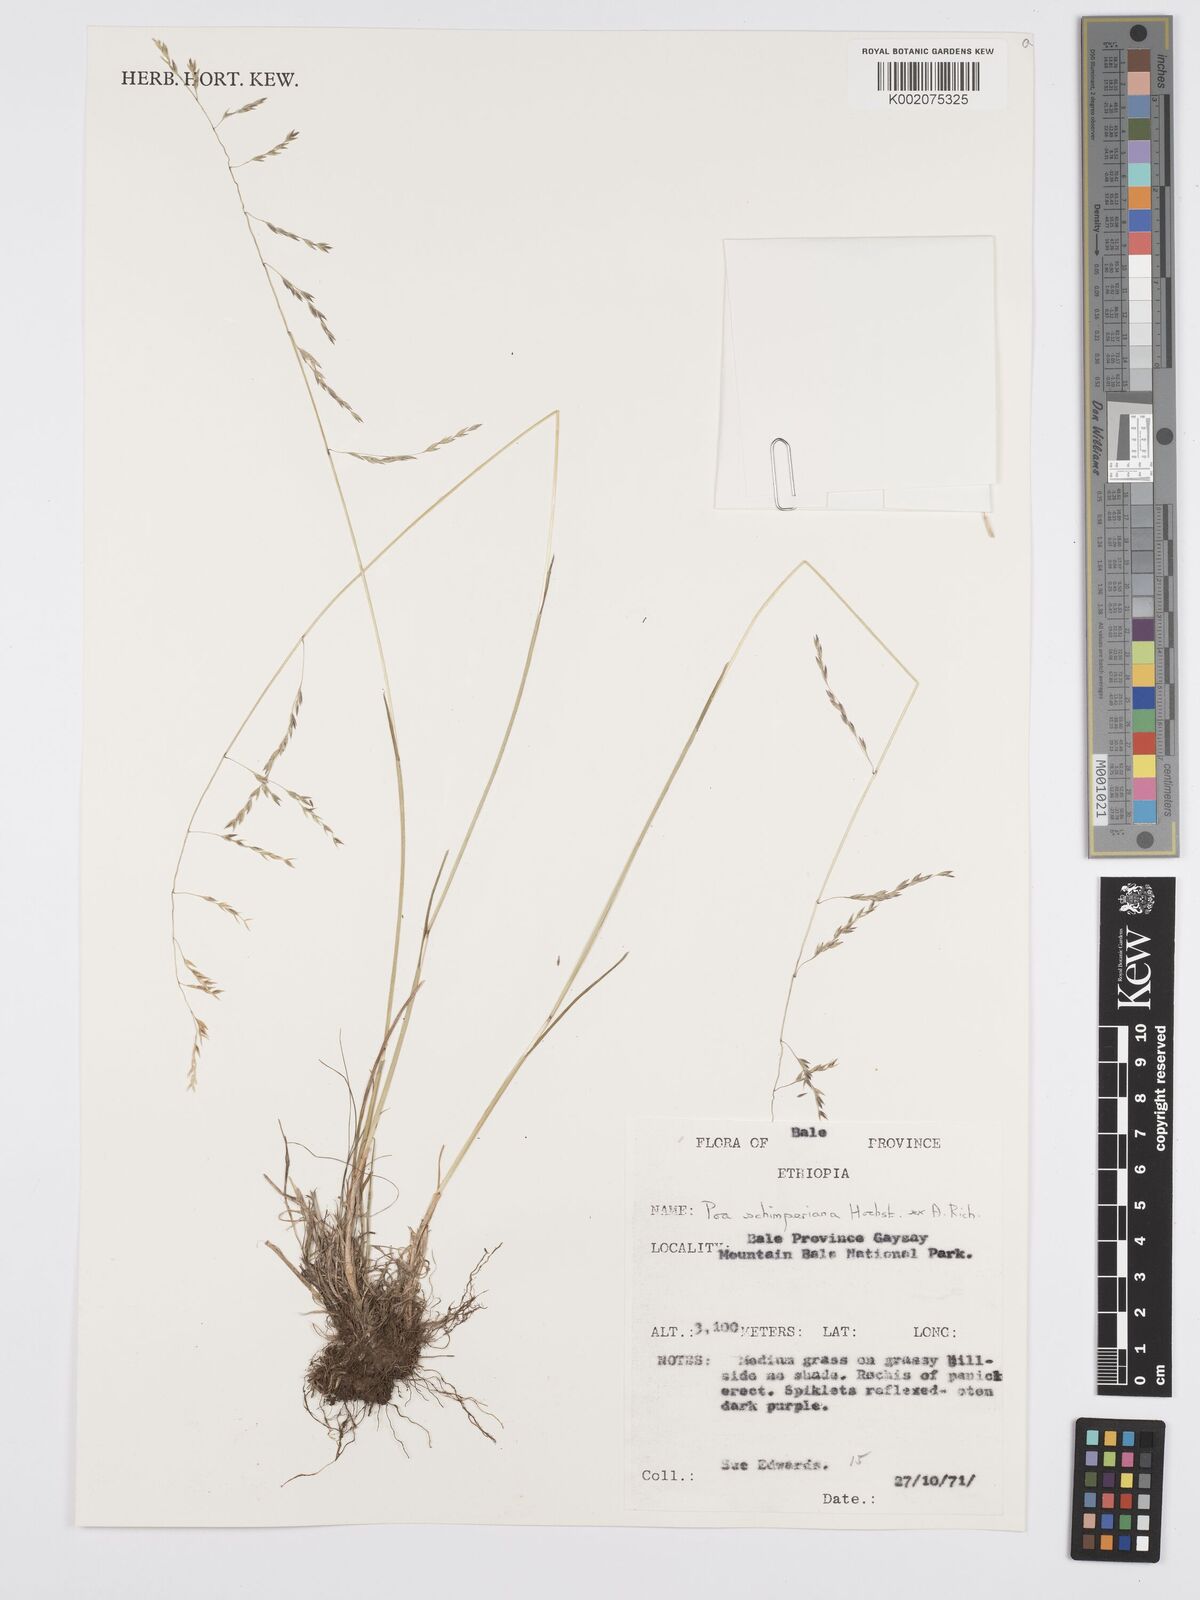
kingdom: Plantae
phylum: Tracheophyta
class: Liliopsida
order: Poales
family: Poaceae
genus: Poa
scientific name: Poa schimperiana
